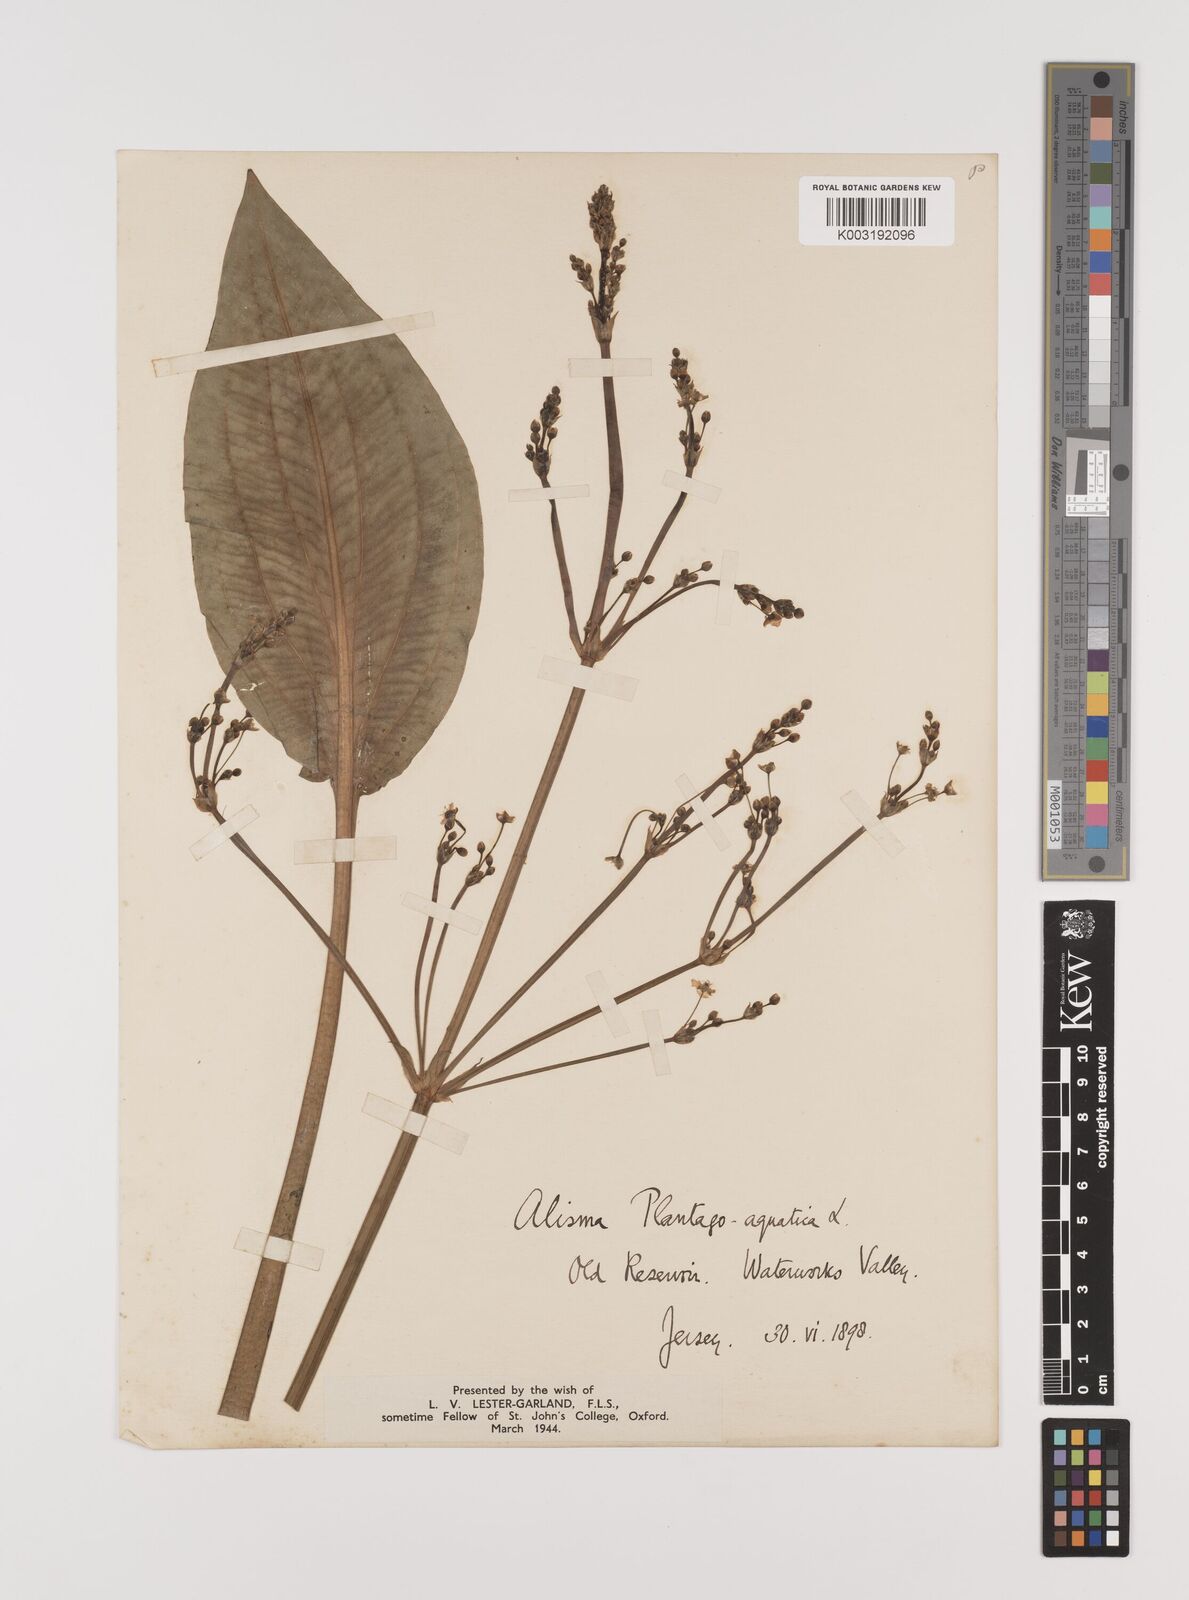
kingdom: Plantae
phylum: Tracheophyta
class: Liliopsida
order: Alismatales
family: Alismataceae
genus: Alisma
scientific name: Alisma plantago-aquatica
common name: Water-plantain
